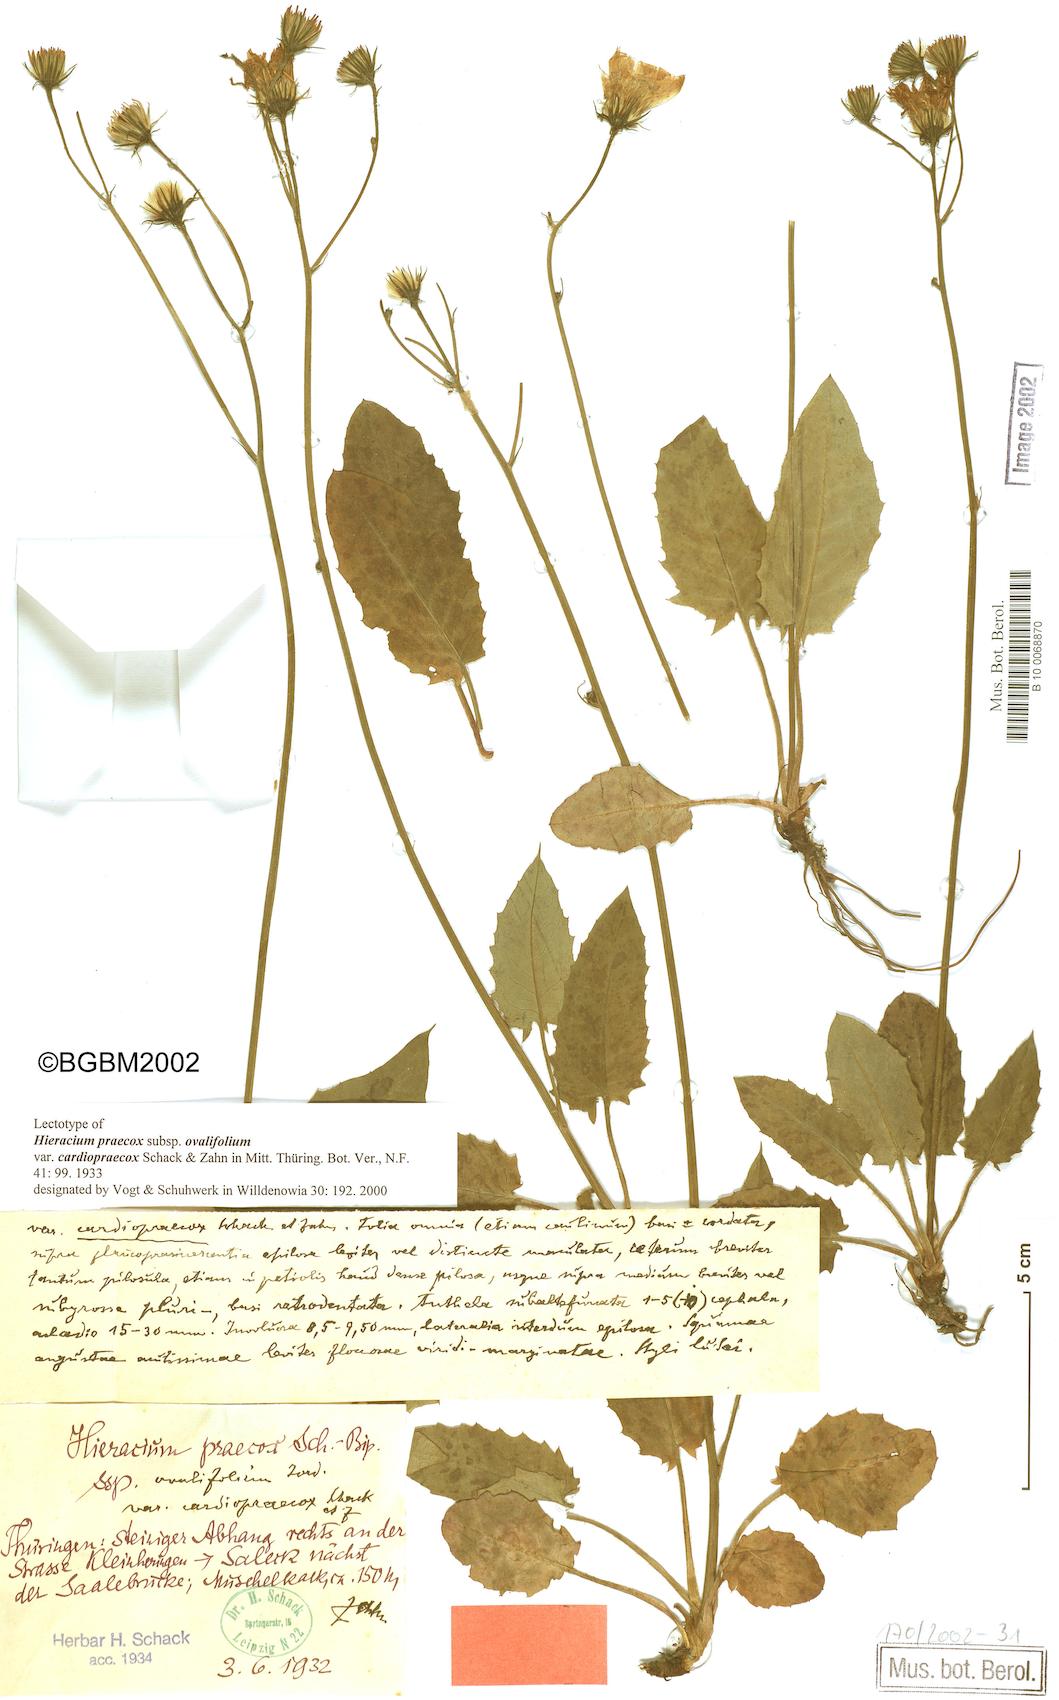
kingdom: Plantae
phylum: Tracheophyta
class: Magnoliopsida
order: Asterales
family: Asteraceae
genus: Hieracium
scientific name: Hieracium praecox
